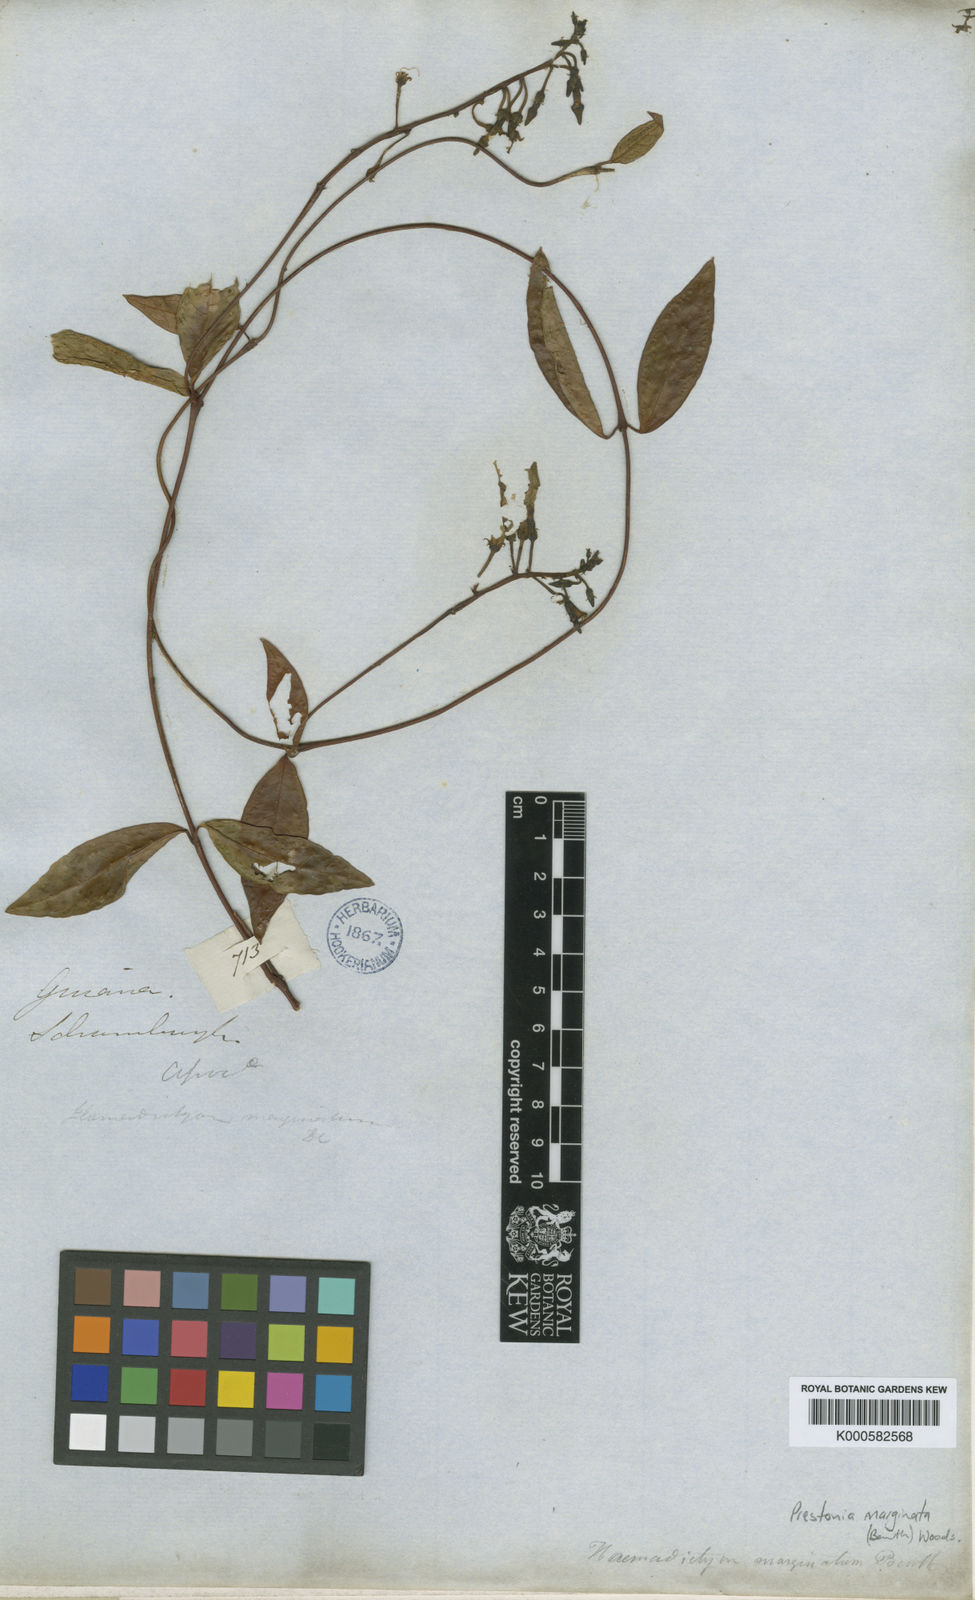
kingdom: Plantae
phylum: Tracheophyta
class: Magnoliopsida
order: Gentianales
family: Apocynaceae
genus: Prestonia
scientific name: Prestonia
